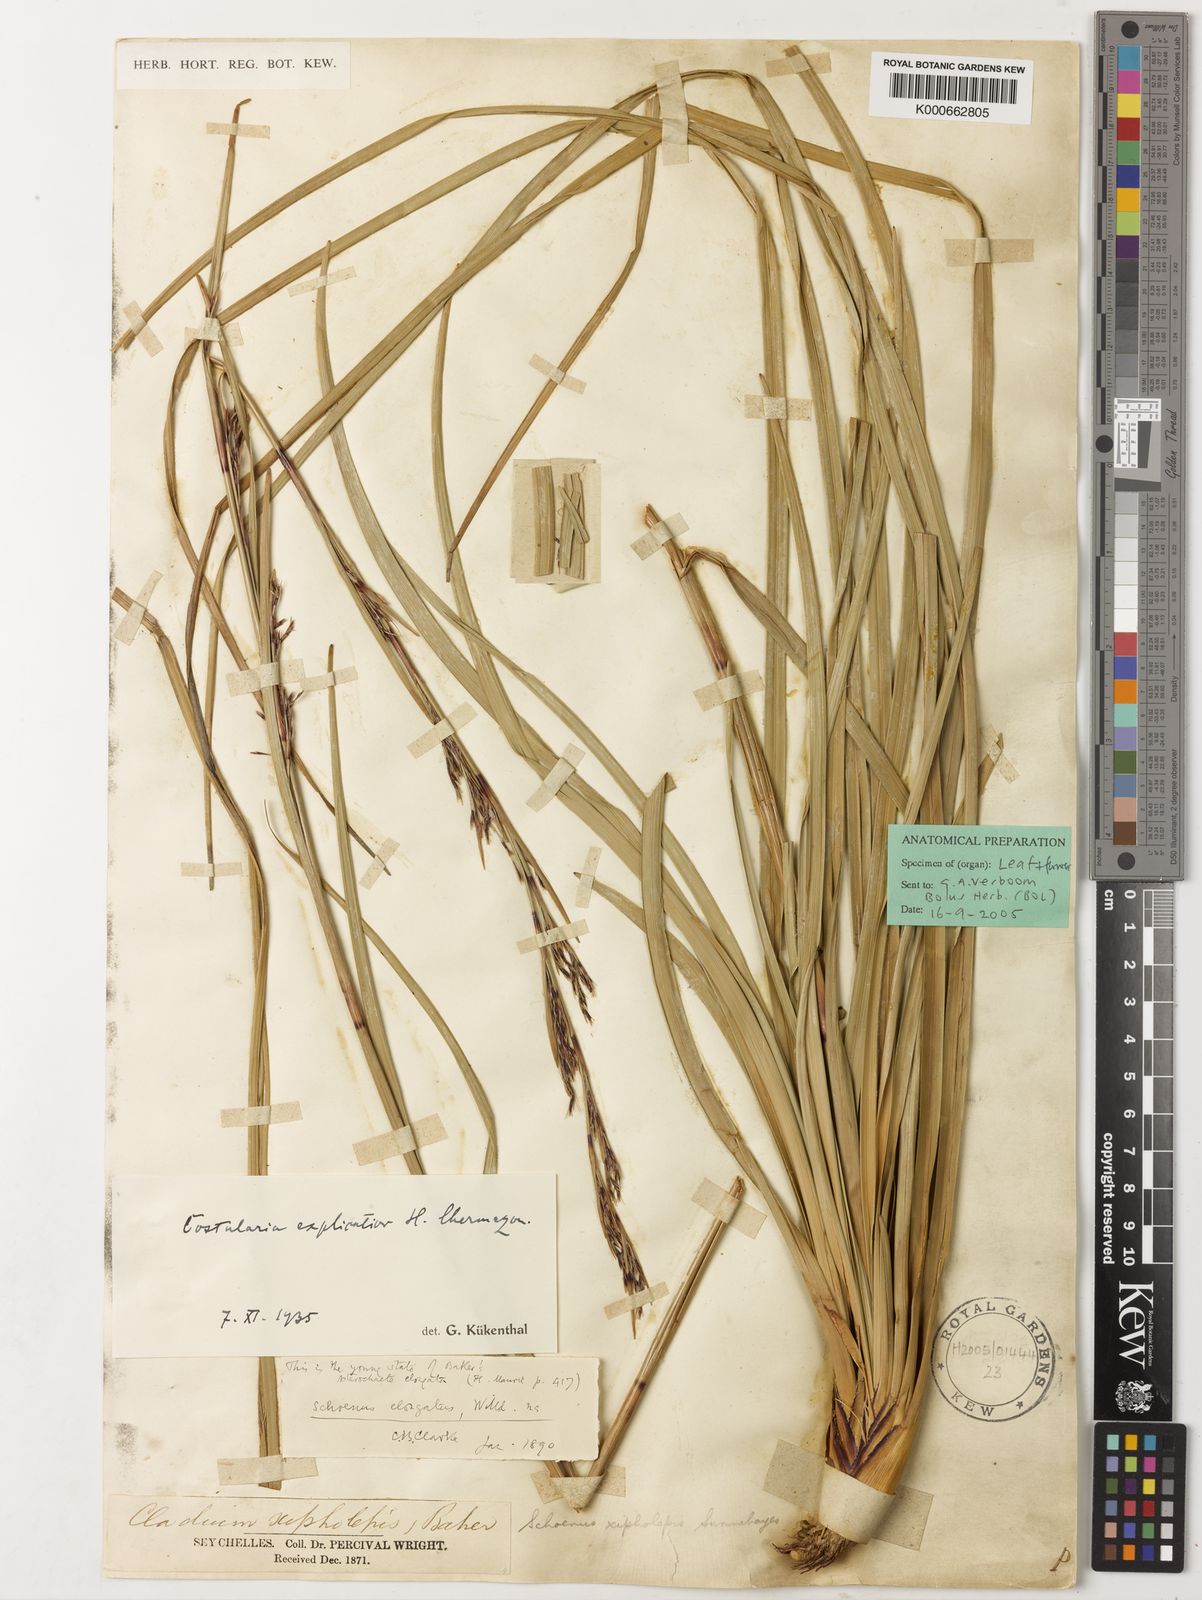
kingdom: Plantae
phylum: Tracheophyta
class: Liliopsida
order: Poales
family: Cyperaceae
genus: Costularia
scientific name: Costularia xipholepis
